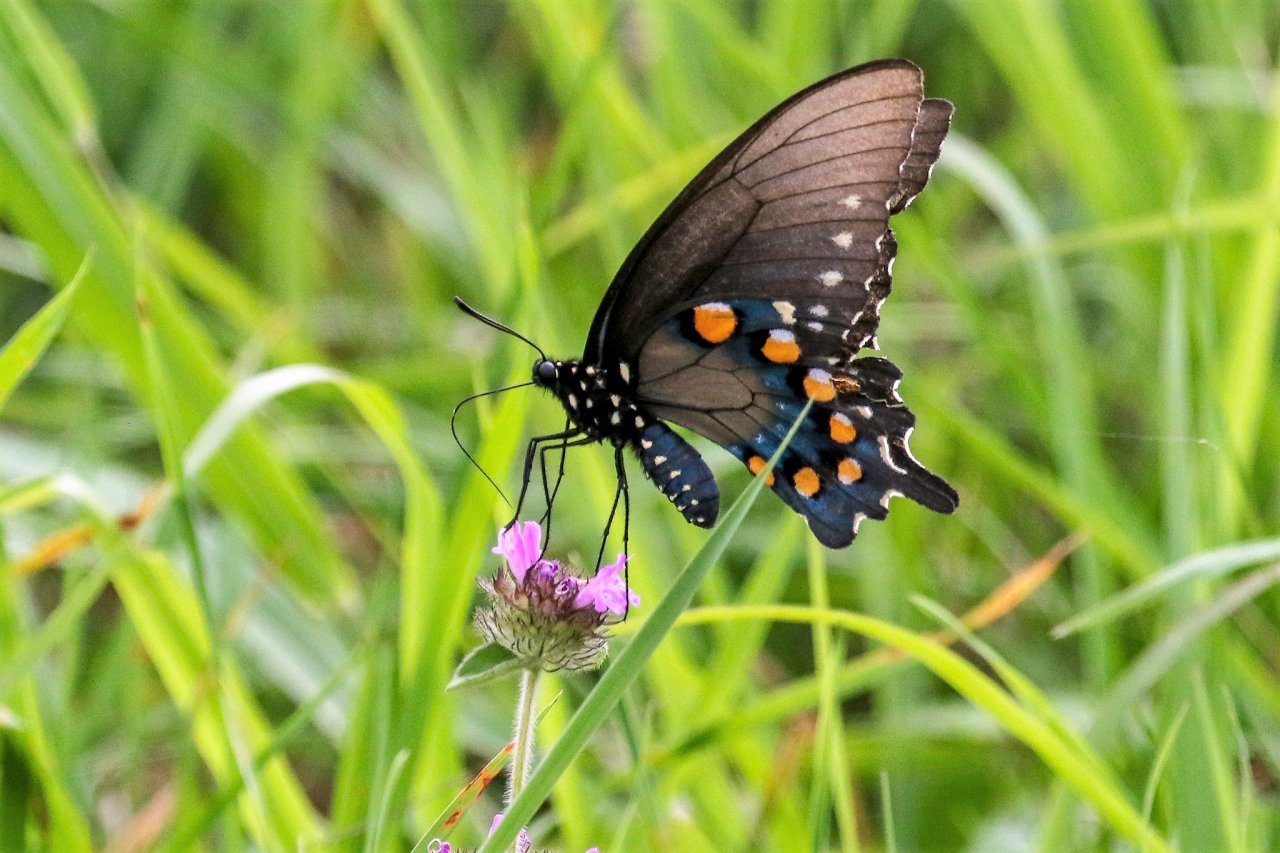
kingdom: Animalia
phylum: Arthropoda
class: Insecta
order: Lepidoptera
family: Papilionidae
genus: Battus
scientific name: Battus philenor
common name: Pipevine Swallowtail
